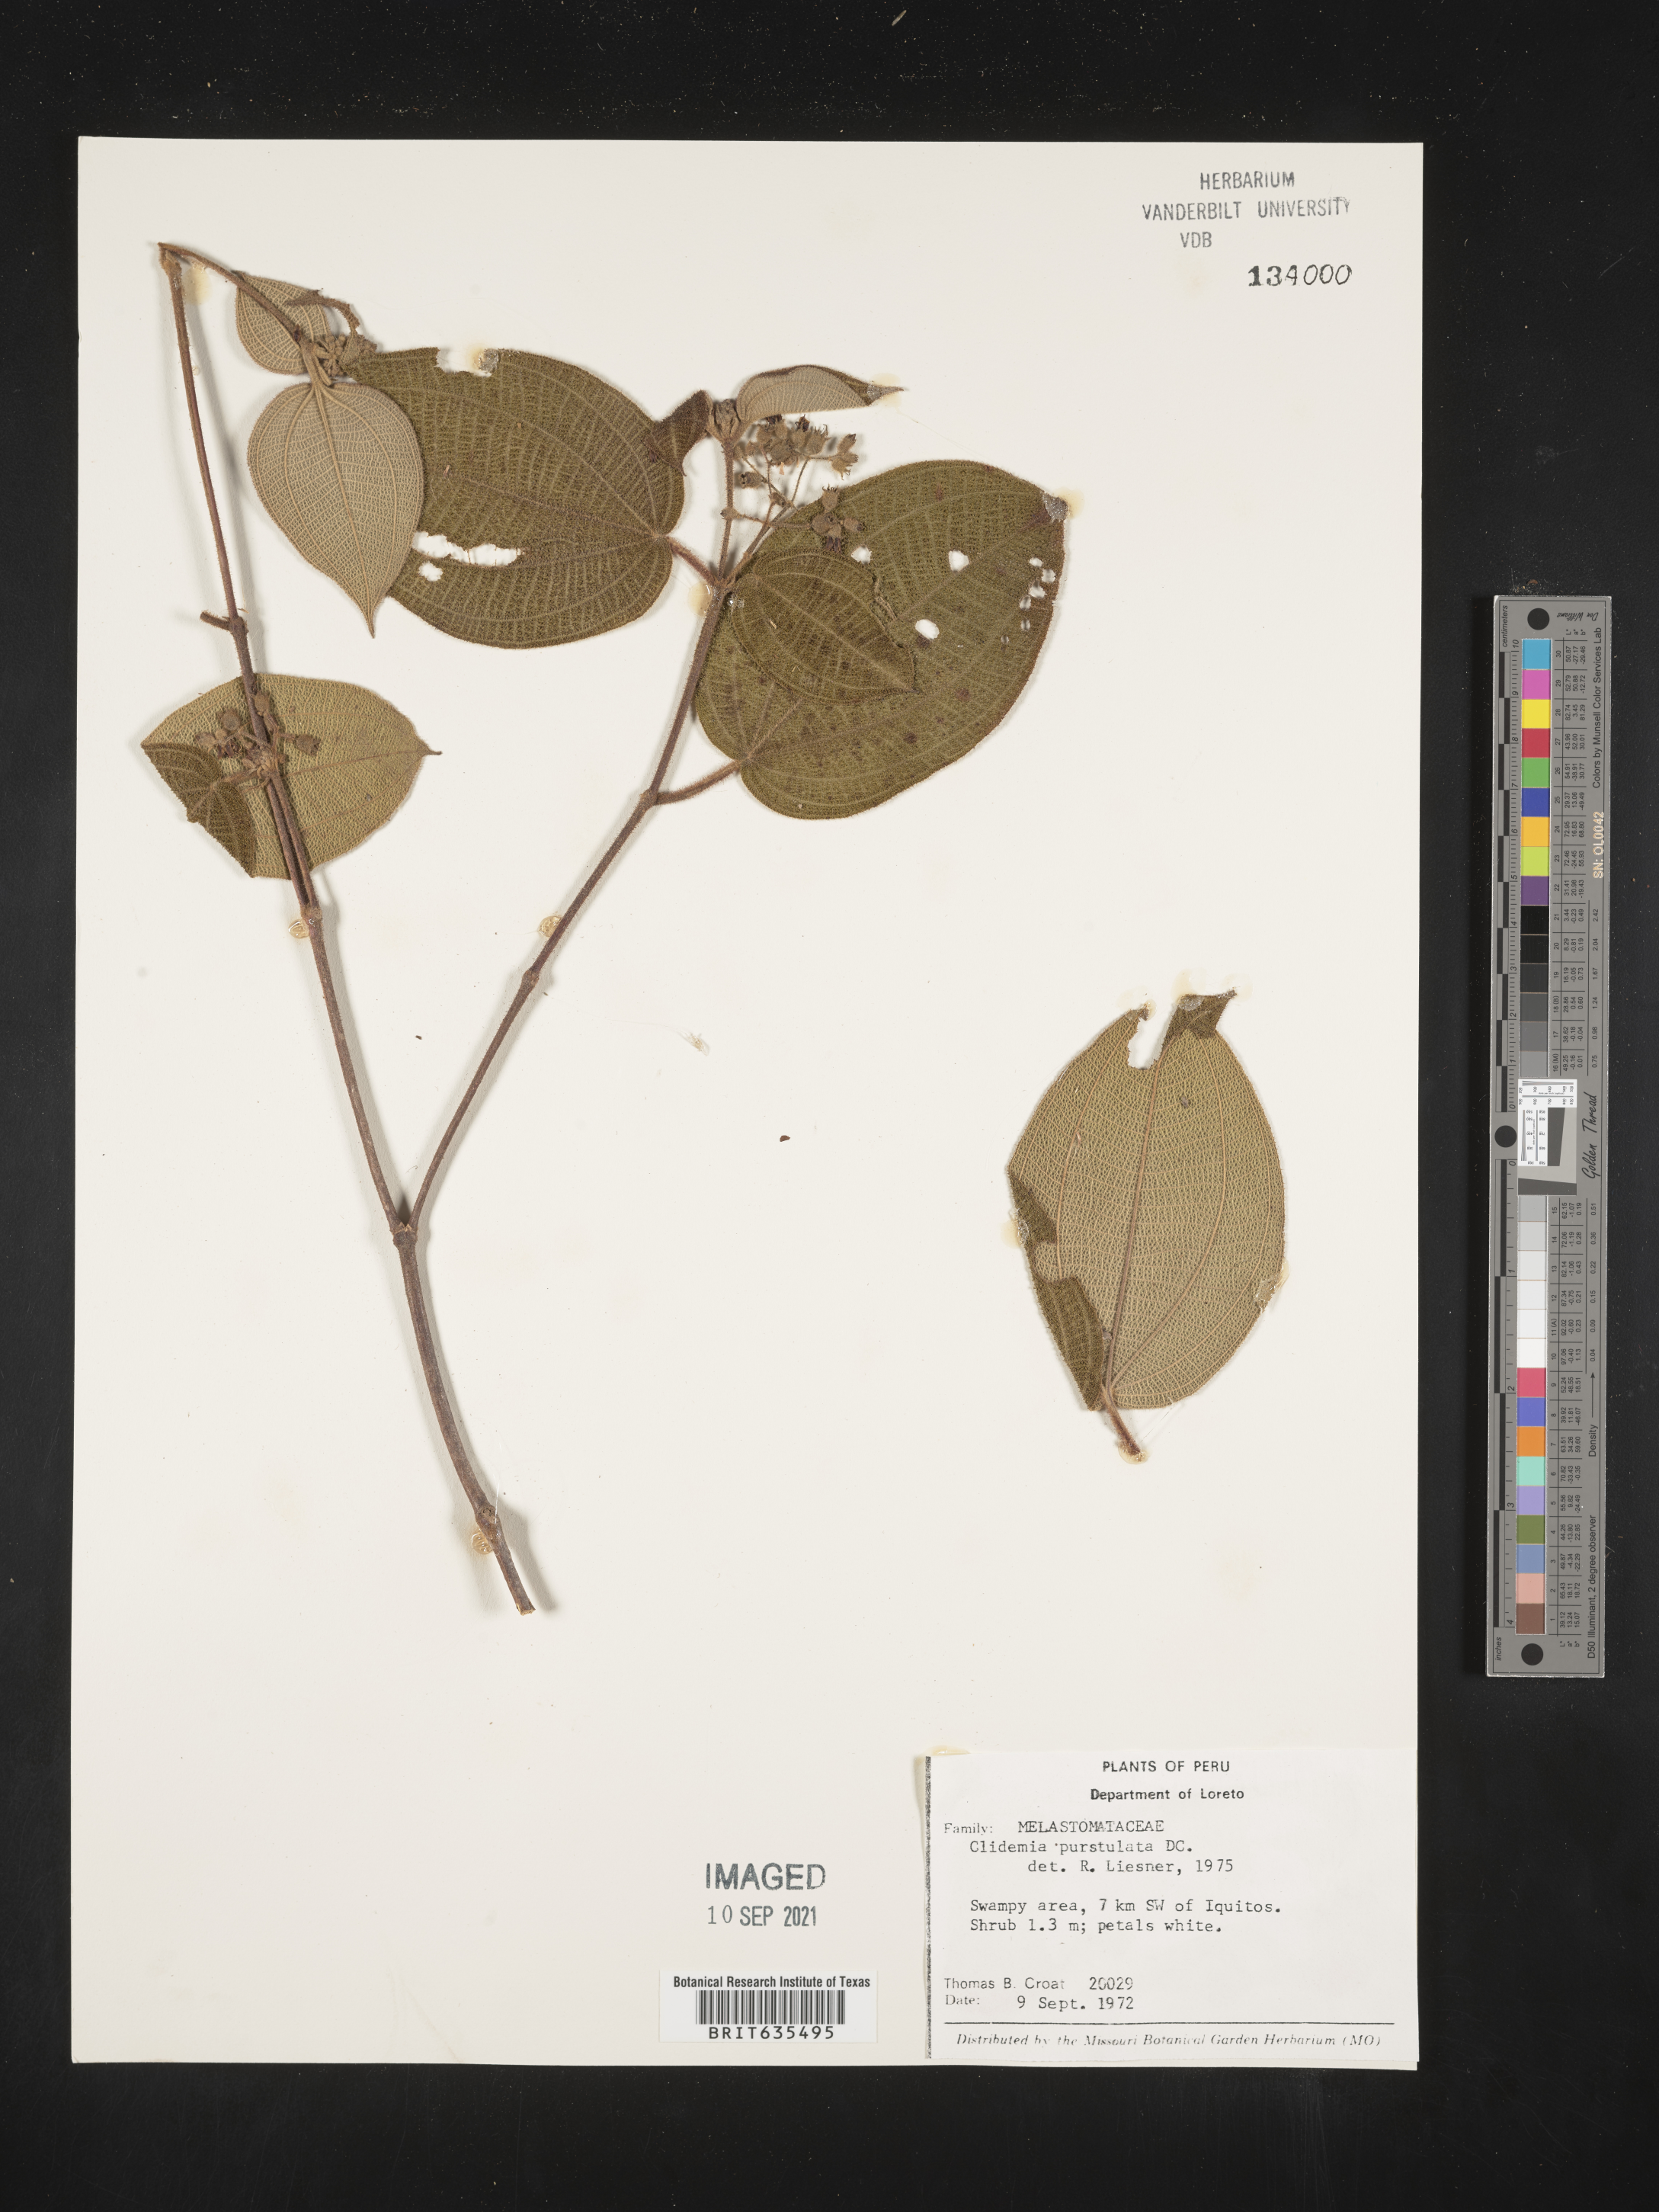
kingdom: Plantae
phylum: Tracheophyta
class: Magnoliopsida
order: Myrtales
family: Melastomataceae
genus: Miconia
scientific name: Miconia
